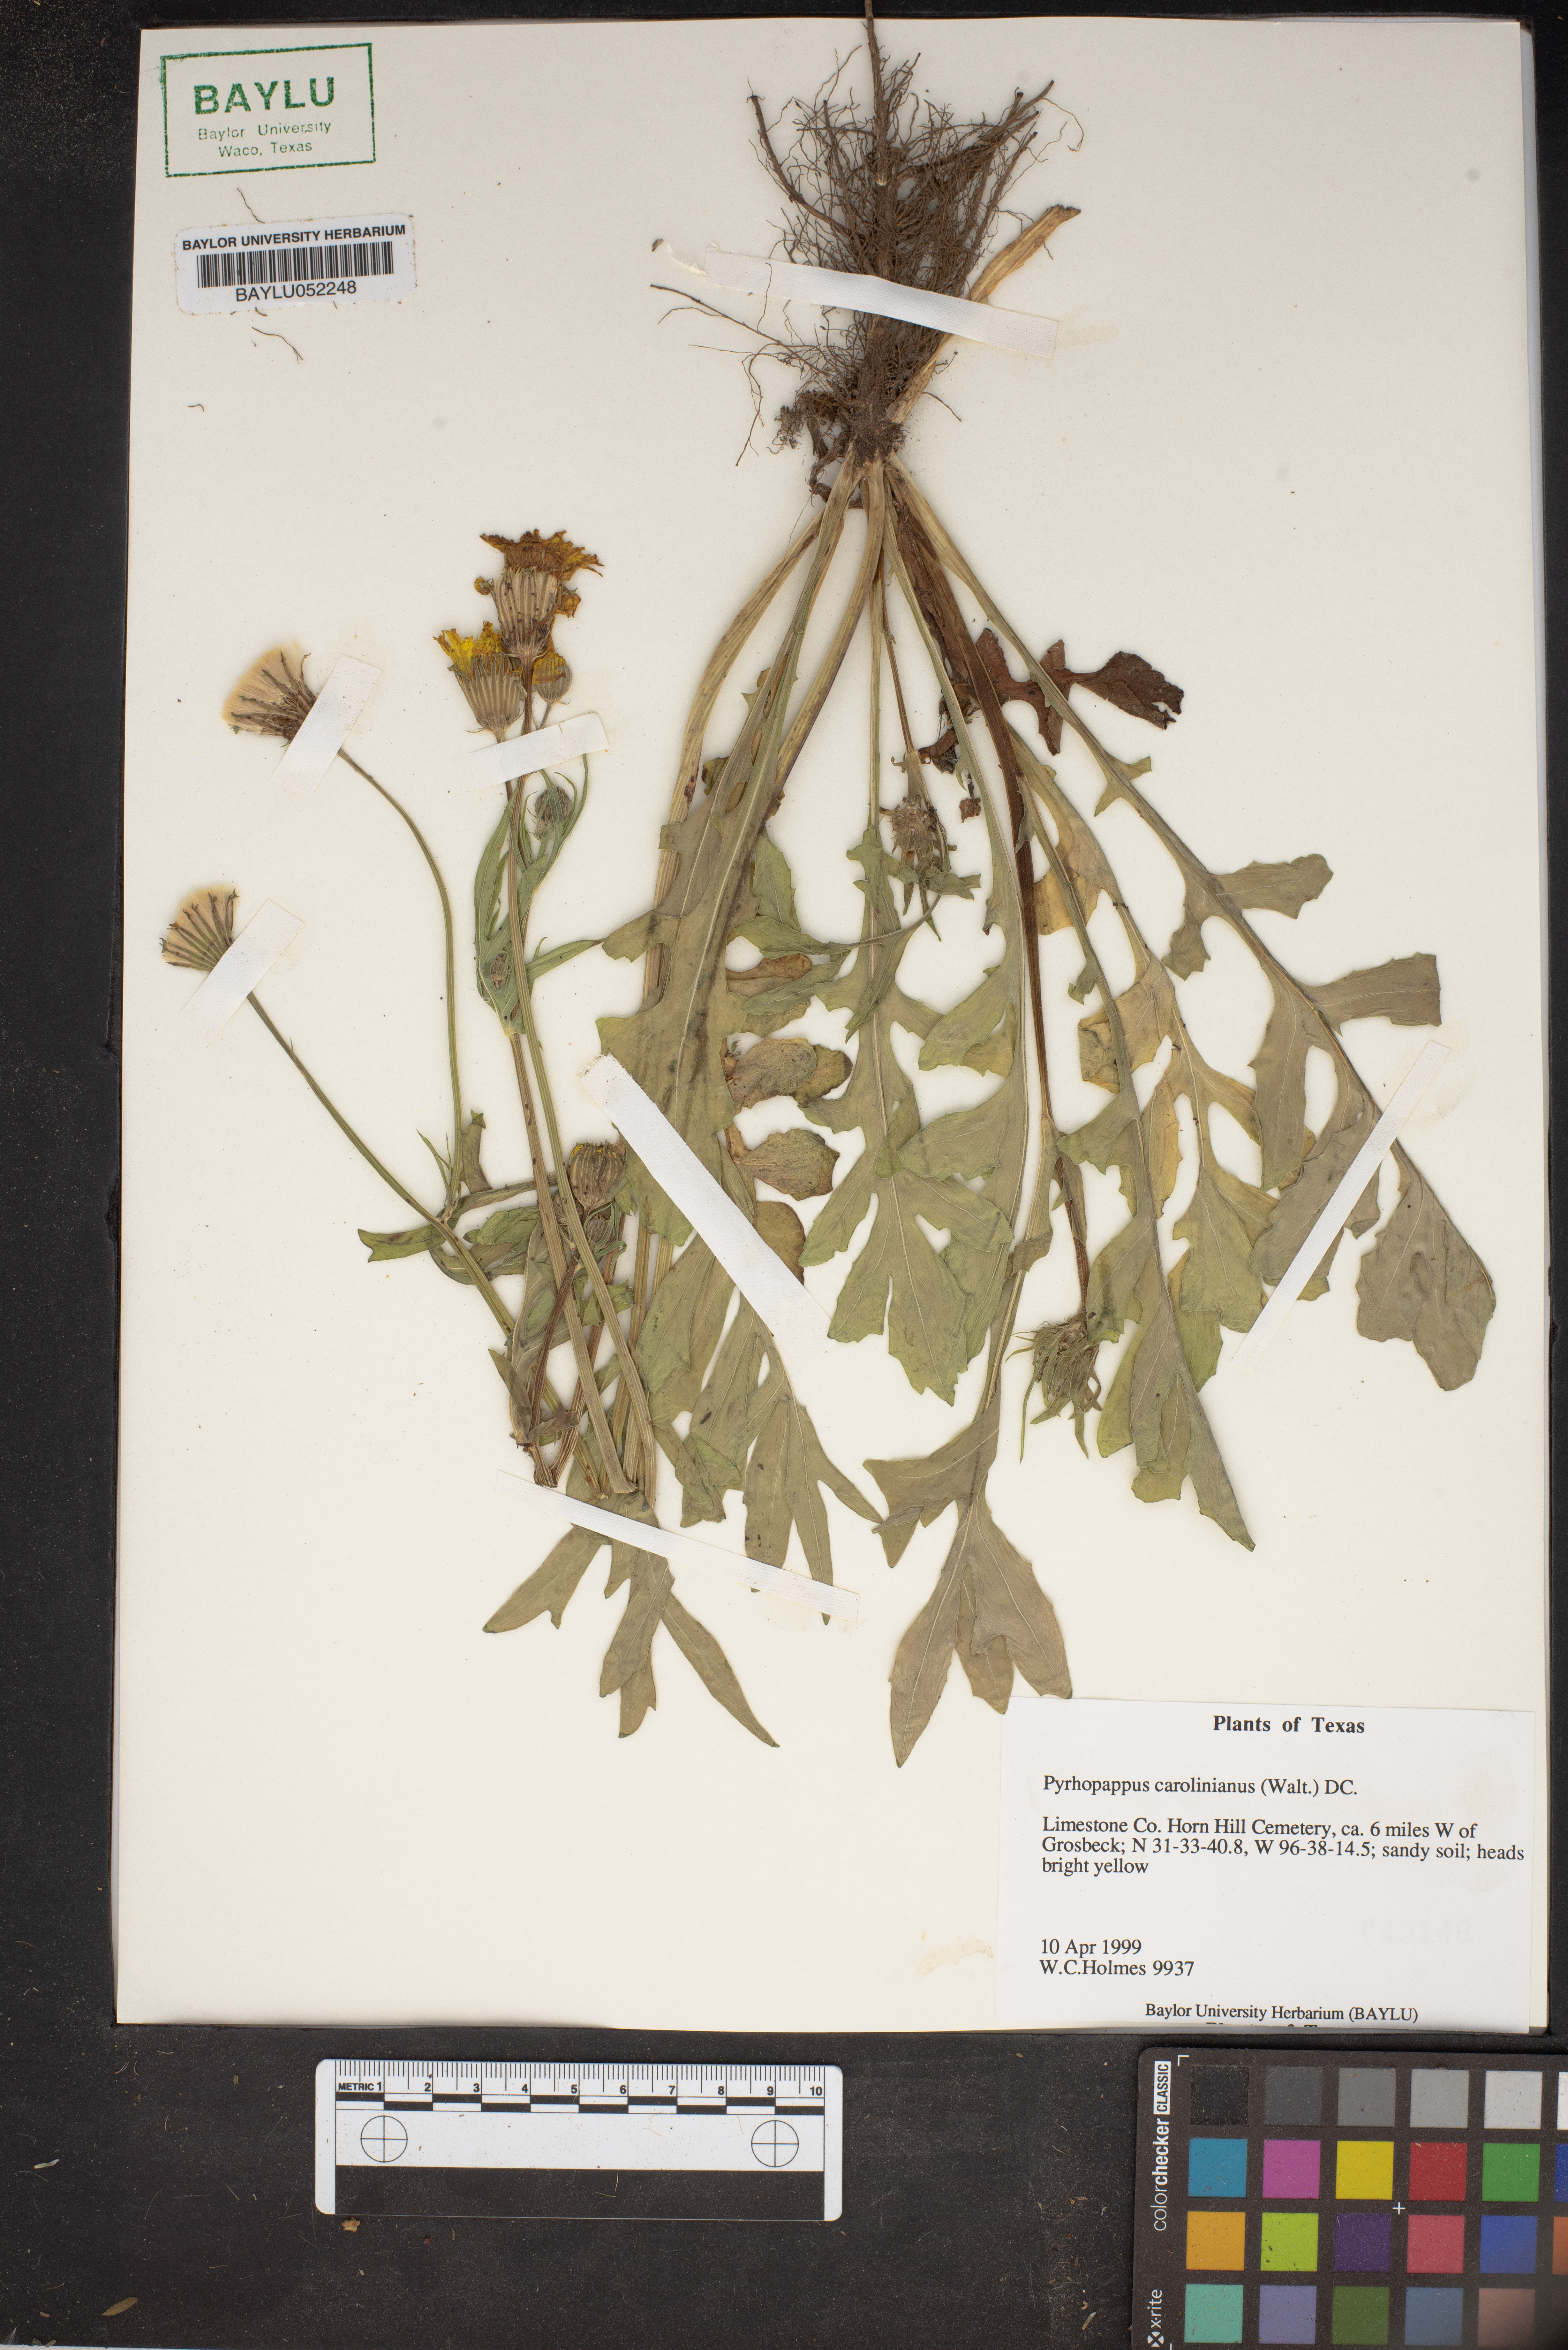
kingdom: Plantae
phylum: Tracheophyta
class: Magnoliopsida
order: Asterales
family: Asteraceae
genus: Pyrrhopappus
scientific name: Pyrrhopappus carolinianus
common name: Carolina desert-chicory
